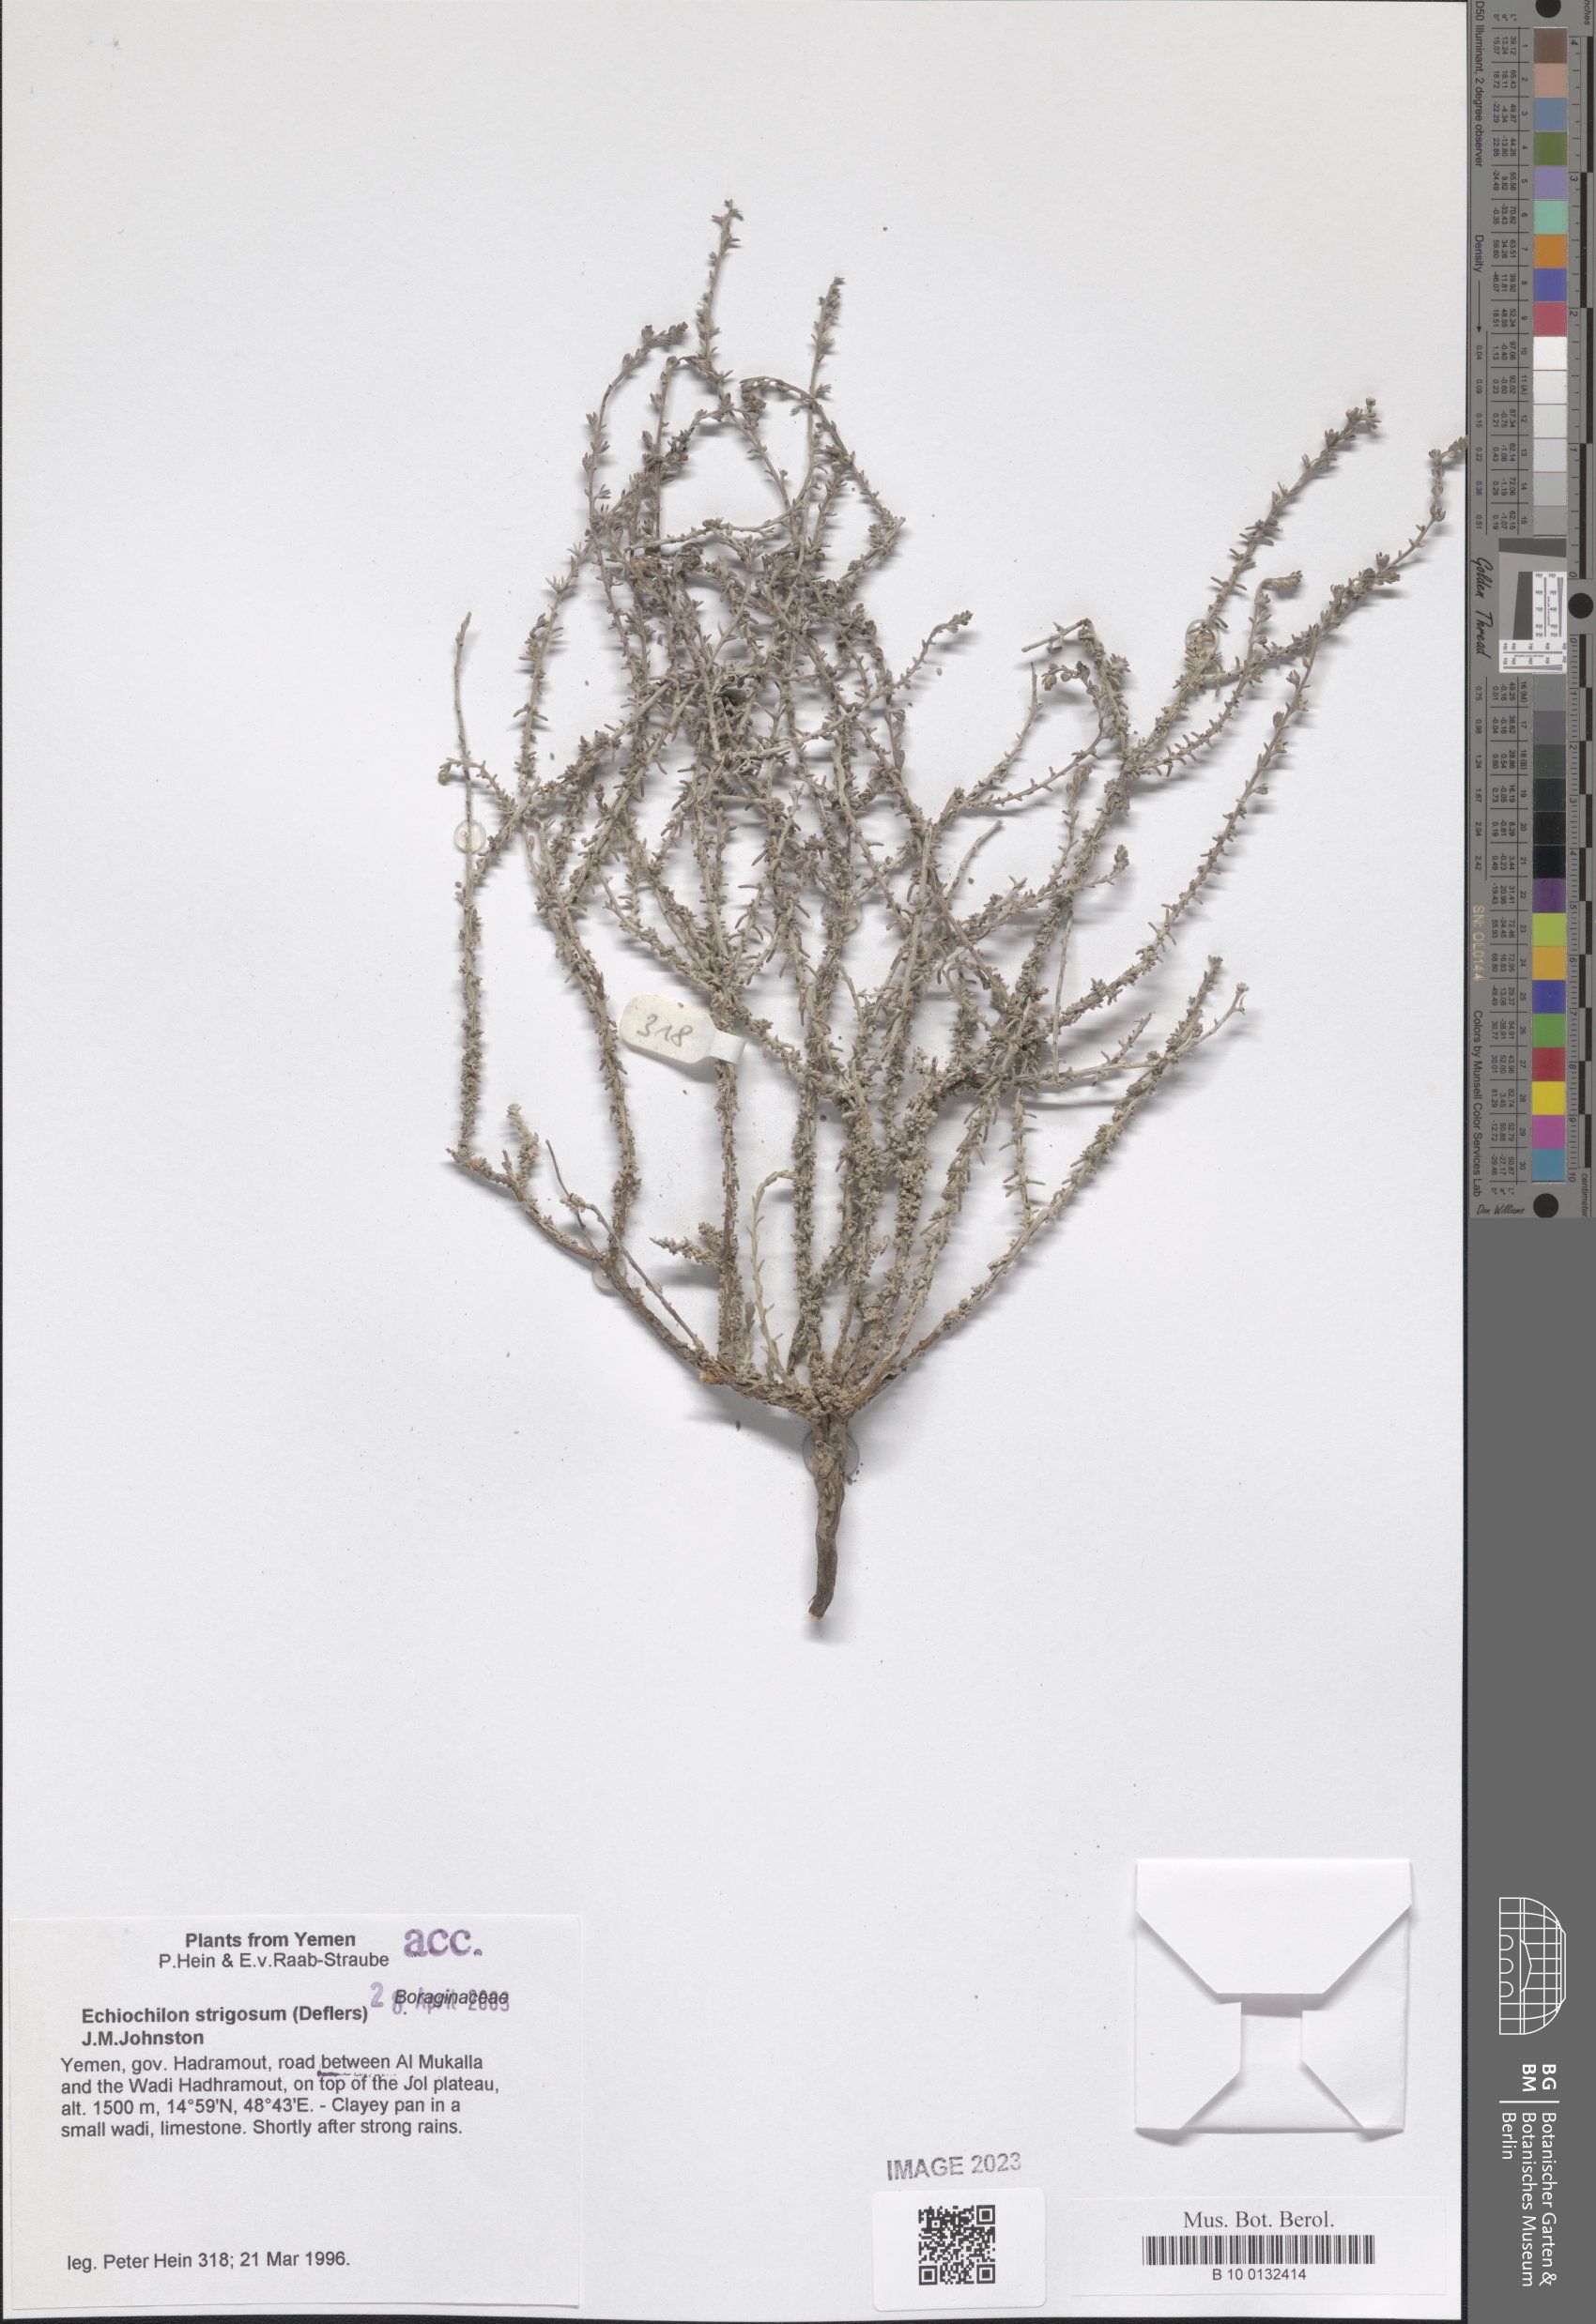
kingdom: Plantae
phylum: Tracheophyta
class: Magnoliopsida
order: Boraginales
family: Boraginaceae
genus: Echiochilon
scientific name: Echiochilon persicum
